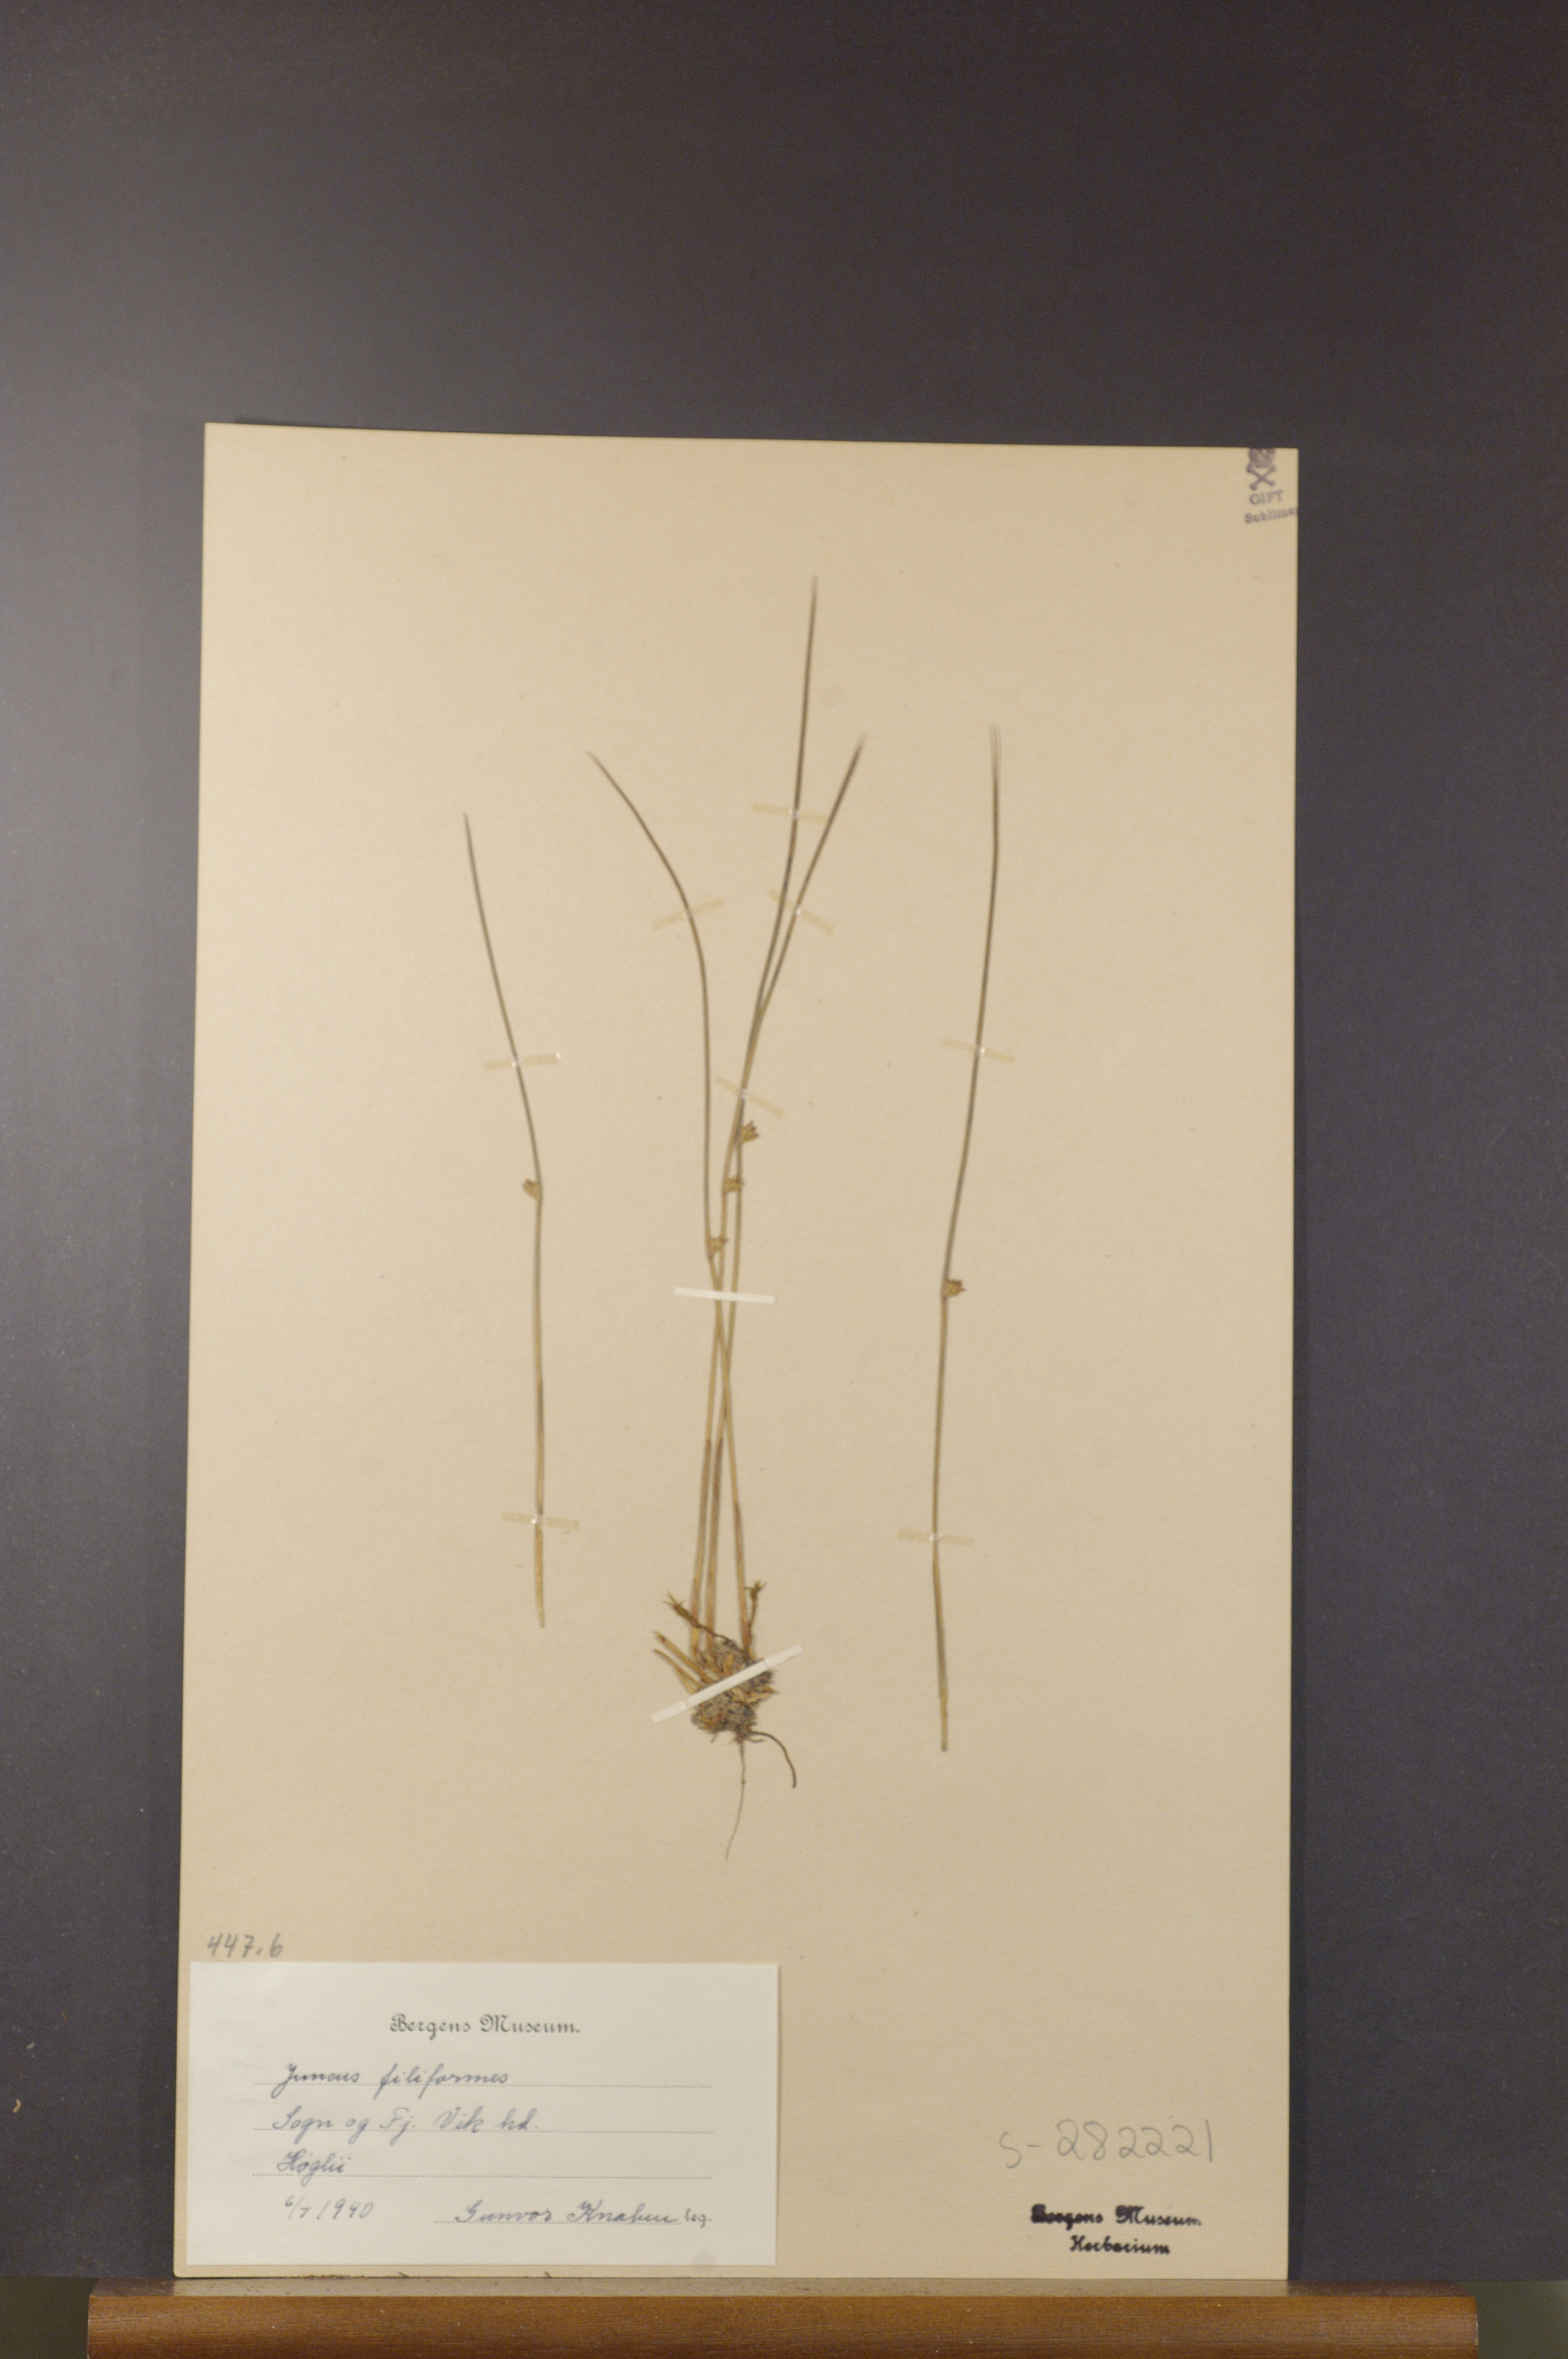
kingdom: Plantae
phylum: Tracheophyta
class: Liliopsida
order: Poales
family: Juncaceae
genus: Juncus
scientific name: Juncus filiformis
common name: Thread rush
